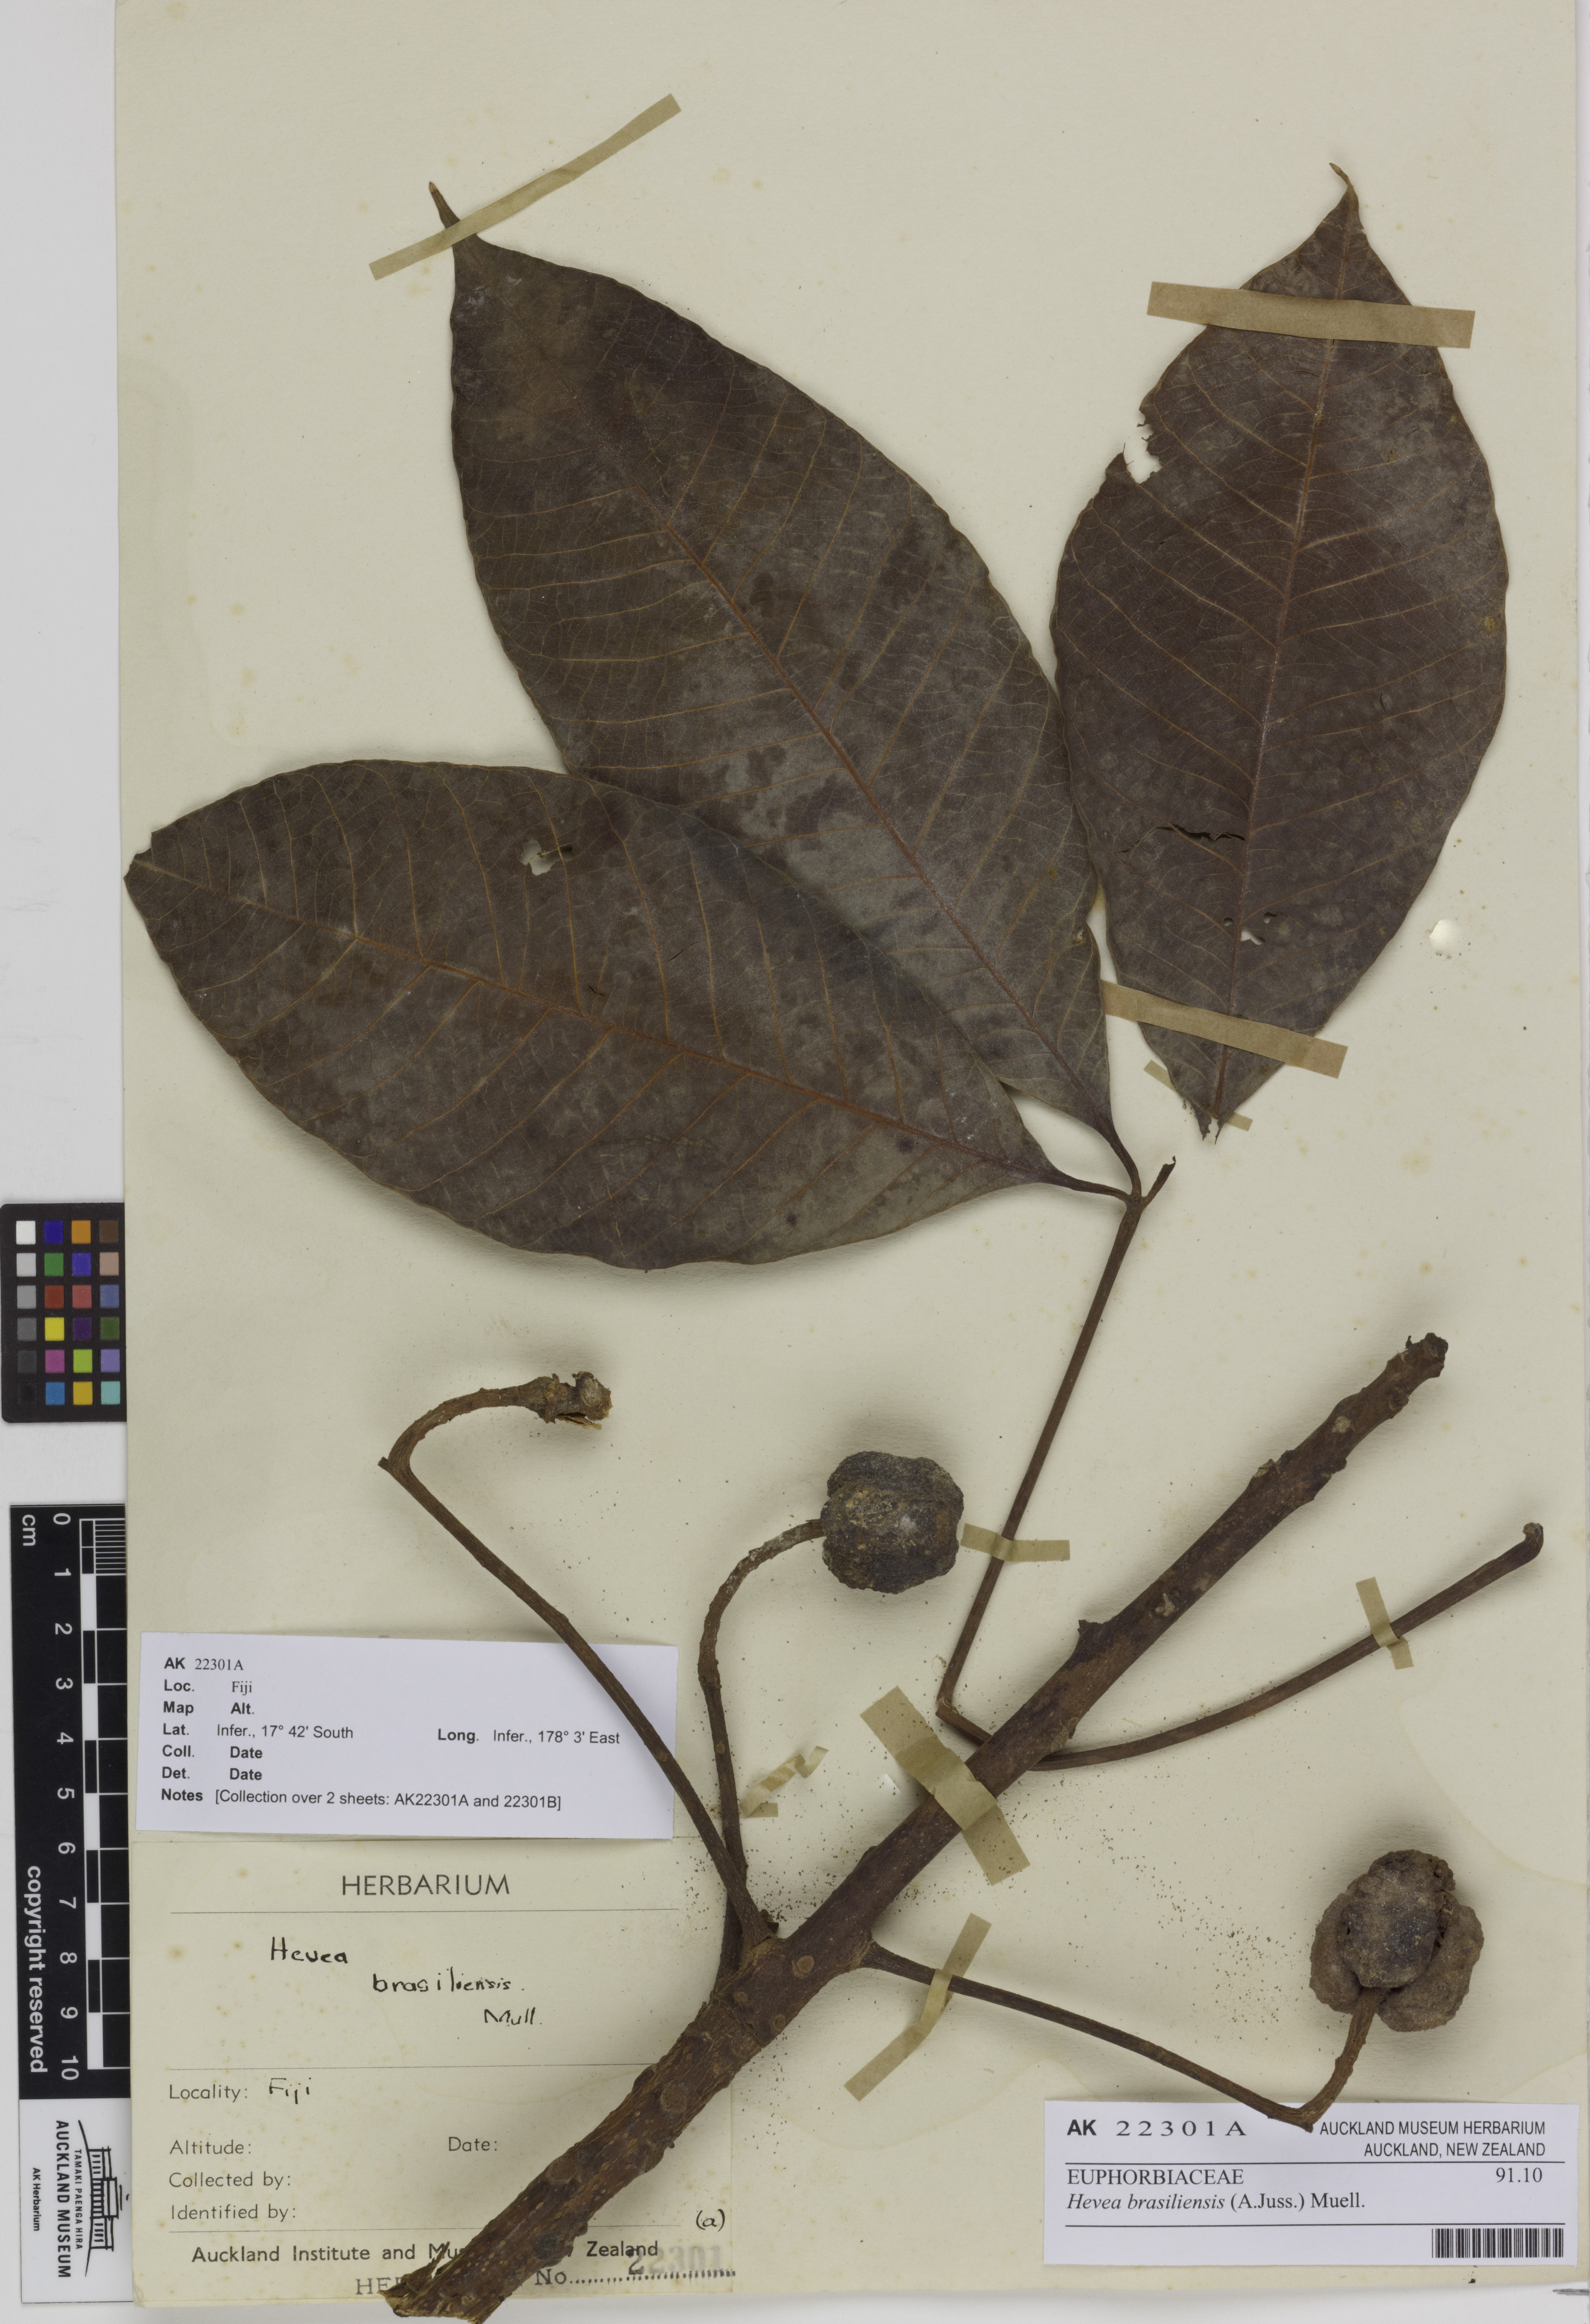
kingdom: Plantae
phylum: Tracheophyta
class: Magnoliopsida
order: Malpighiales
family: Euphorbiaceae
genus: Hevea
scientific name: Hevea brasiliensis
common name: Natural rubber
